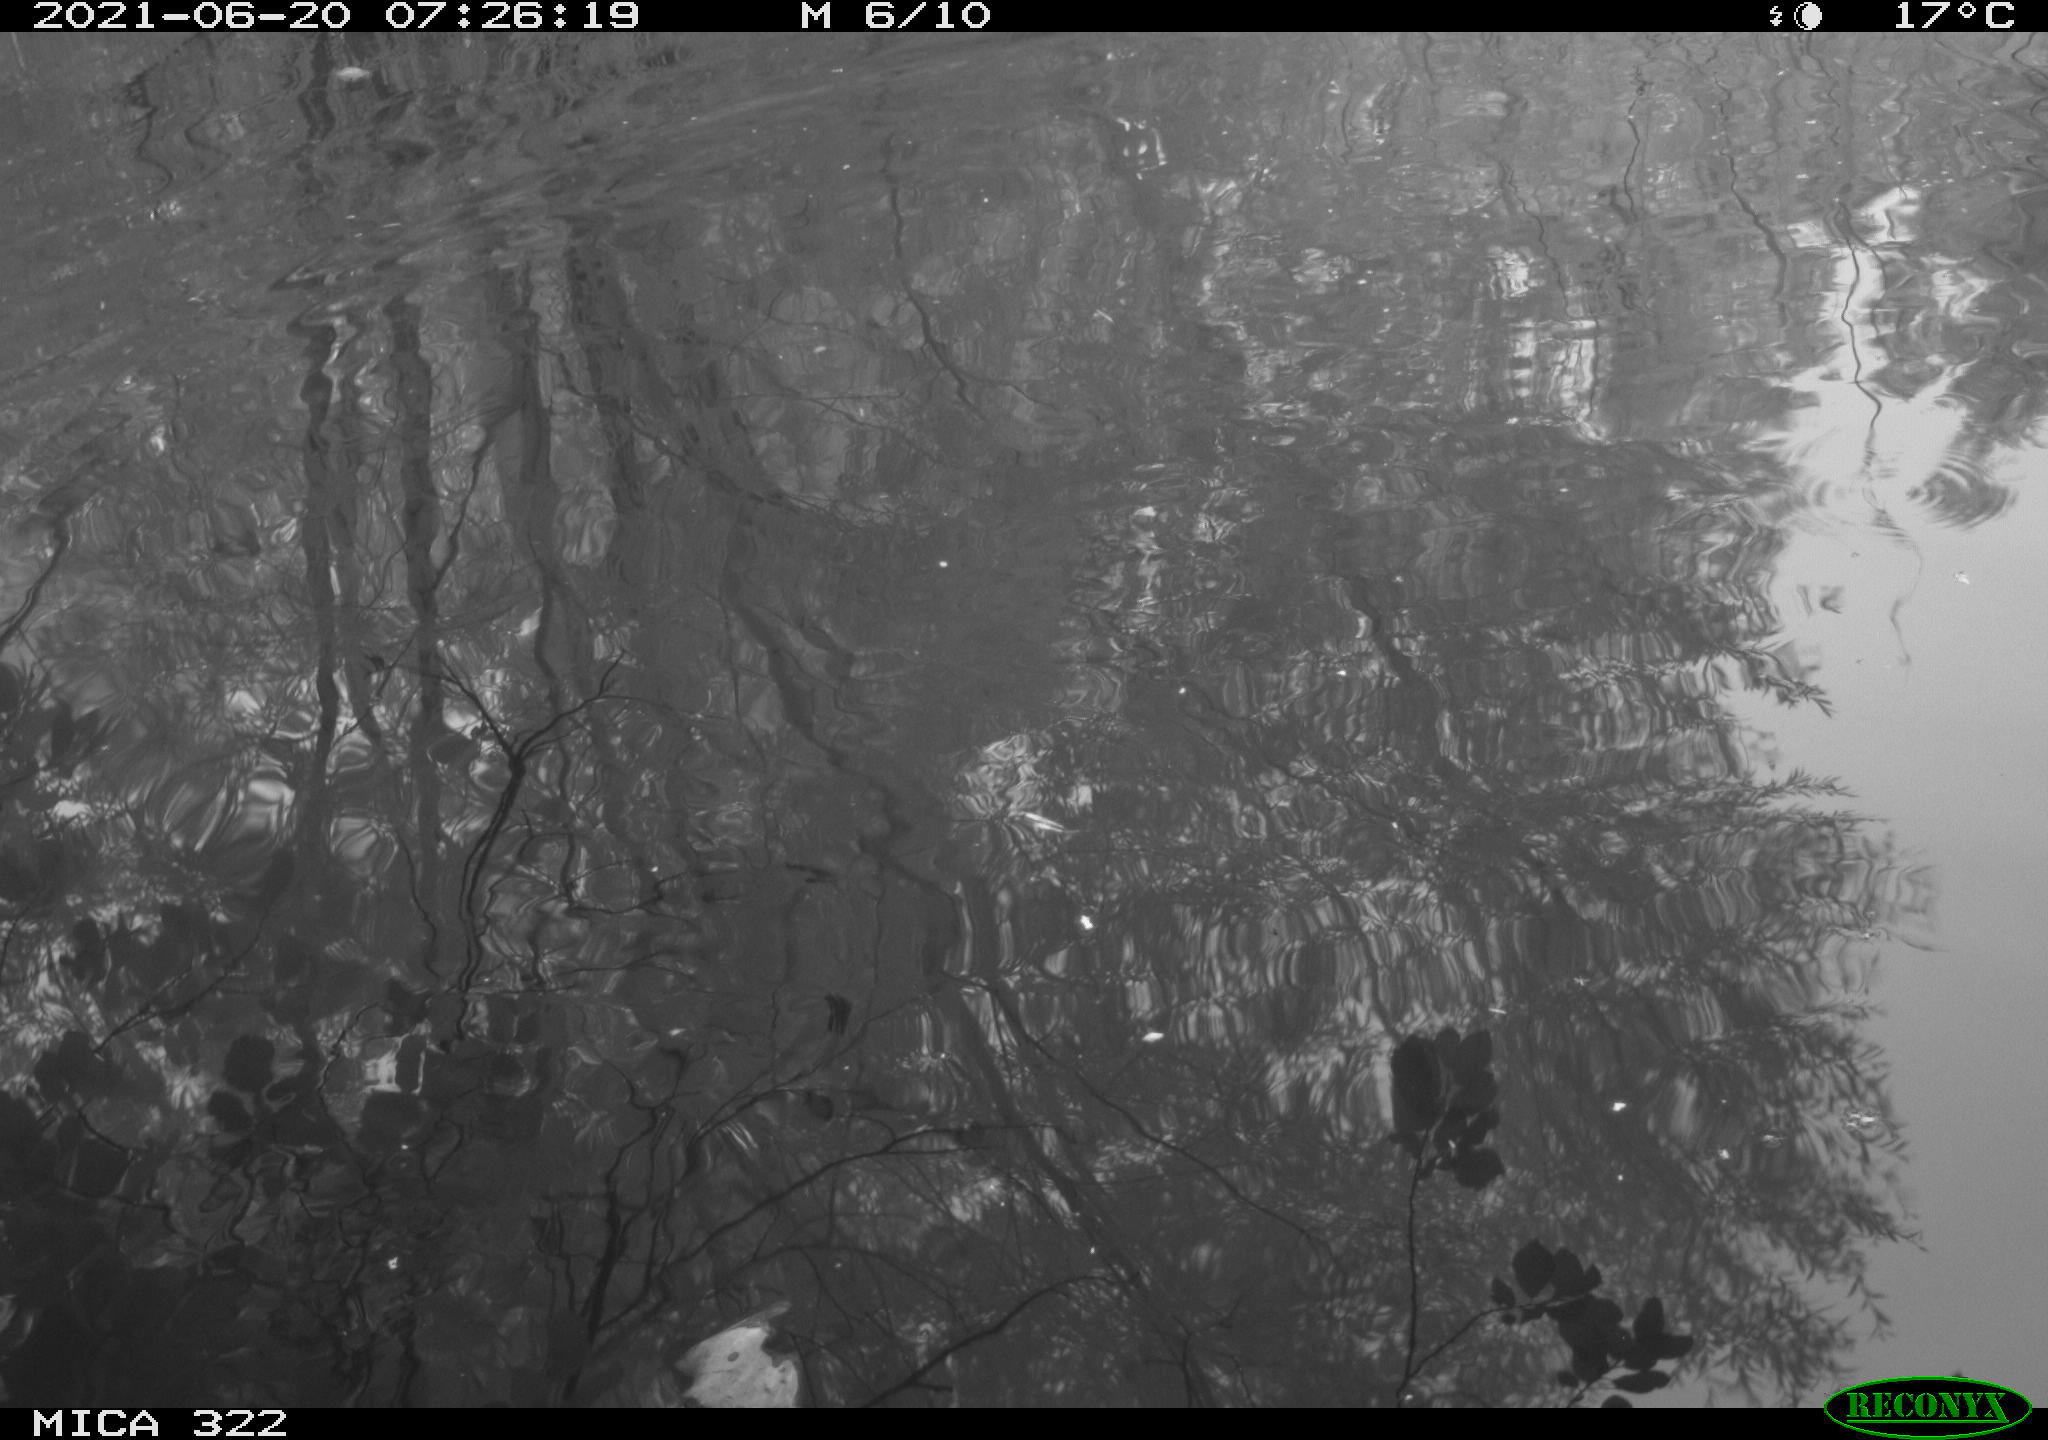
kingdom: Animalia
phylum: Chordata
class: Aves
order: Gruiformes
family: Rallidae
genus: Fulica
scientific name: Fulica atra
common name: Eurasian coot
